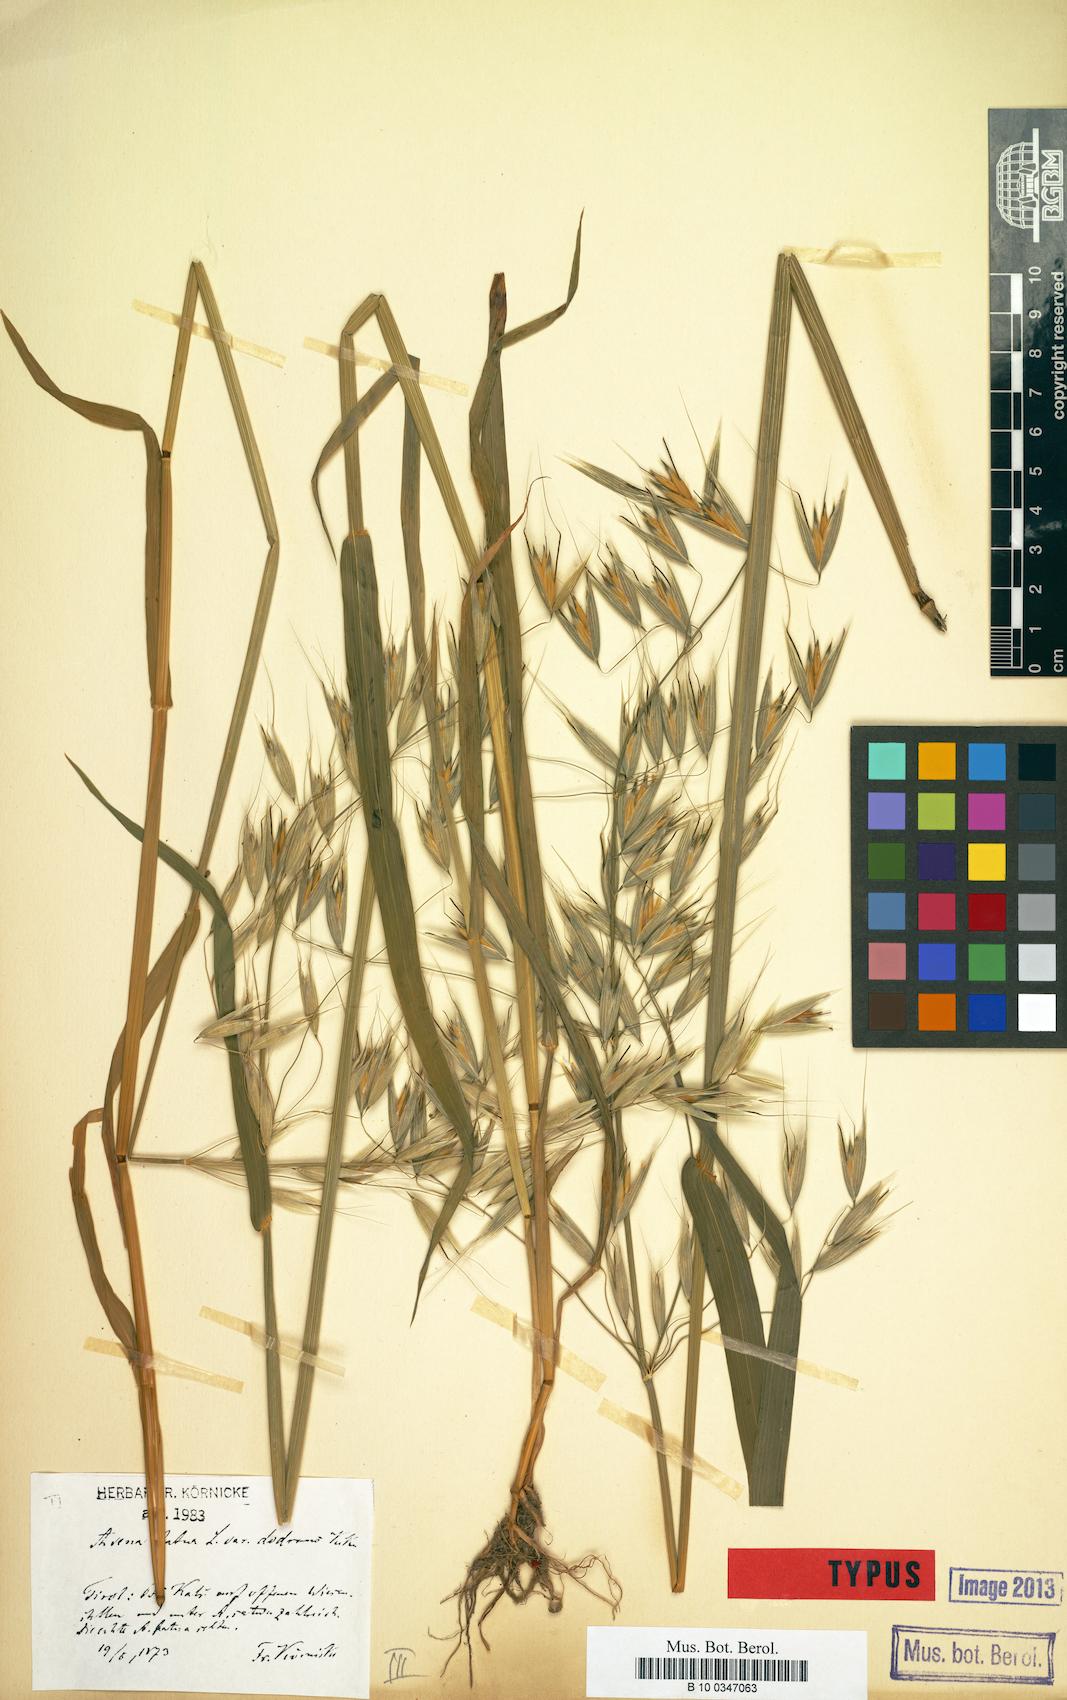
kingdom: Plantae
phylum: Tracheophyta
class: Liliopsida
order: Poales
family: Poaceae
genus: Avena
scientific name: Avena hybrida
